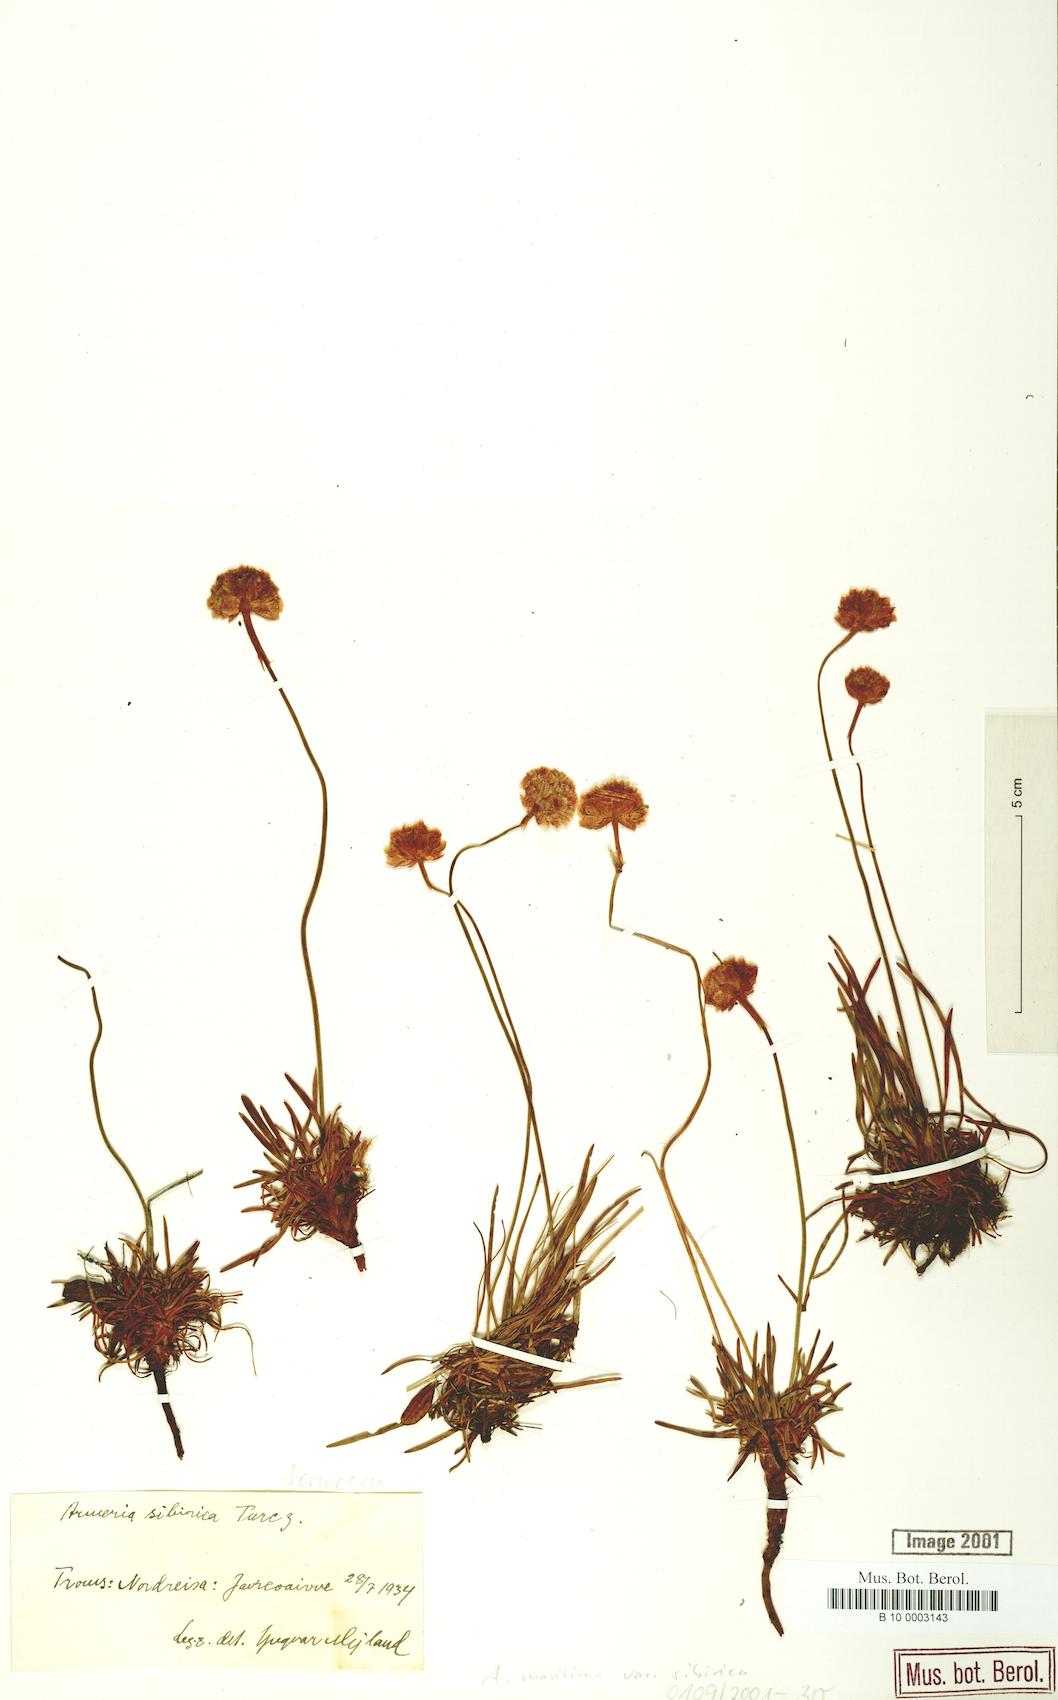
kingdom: Plantae
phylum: Tracheophyta
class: Magnoliopsida
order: Caryophyllales
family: Plumbaginaceae
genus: Armeria
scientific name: Armeria maritima
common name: Thrift
